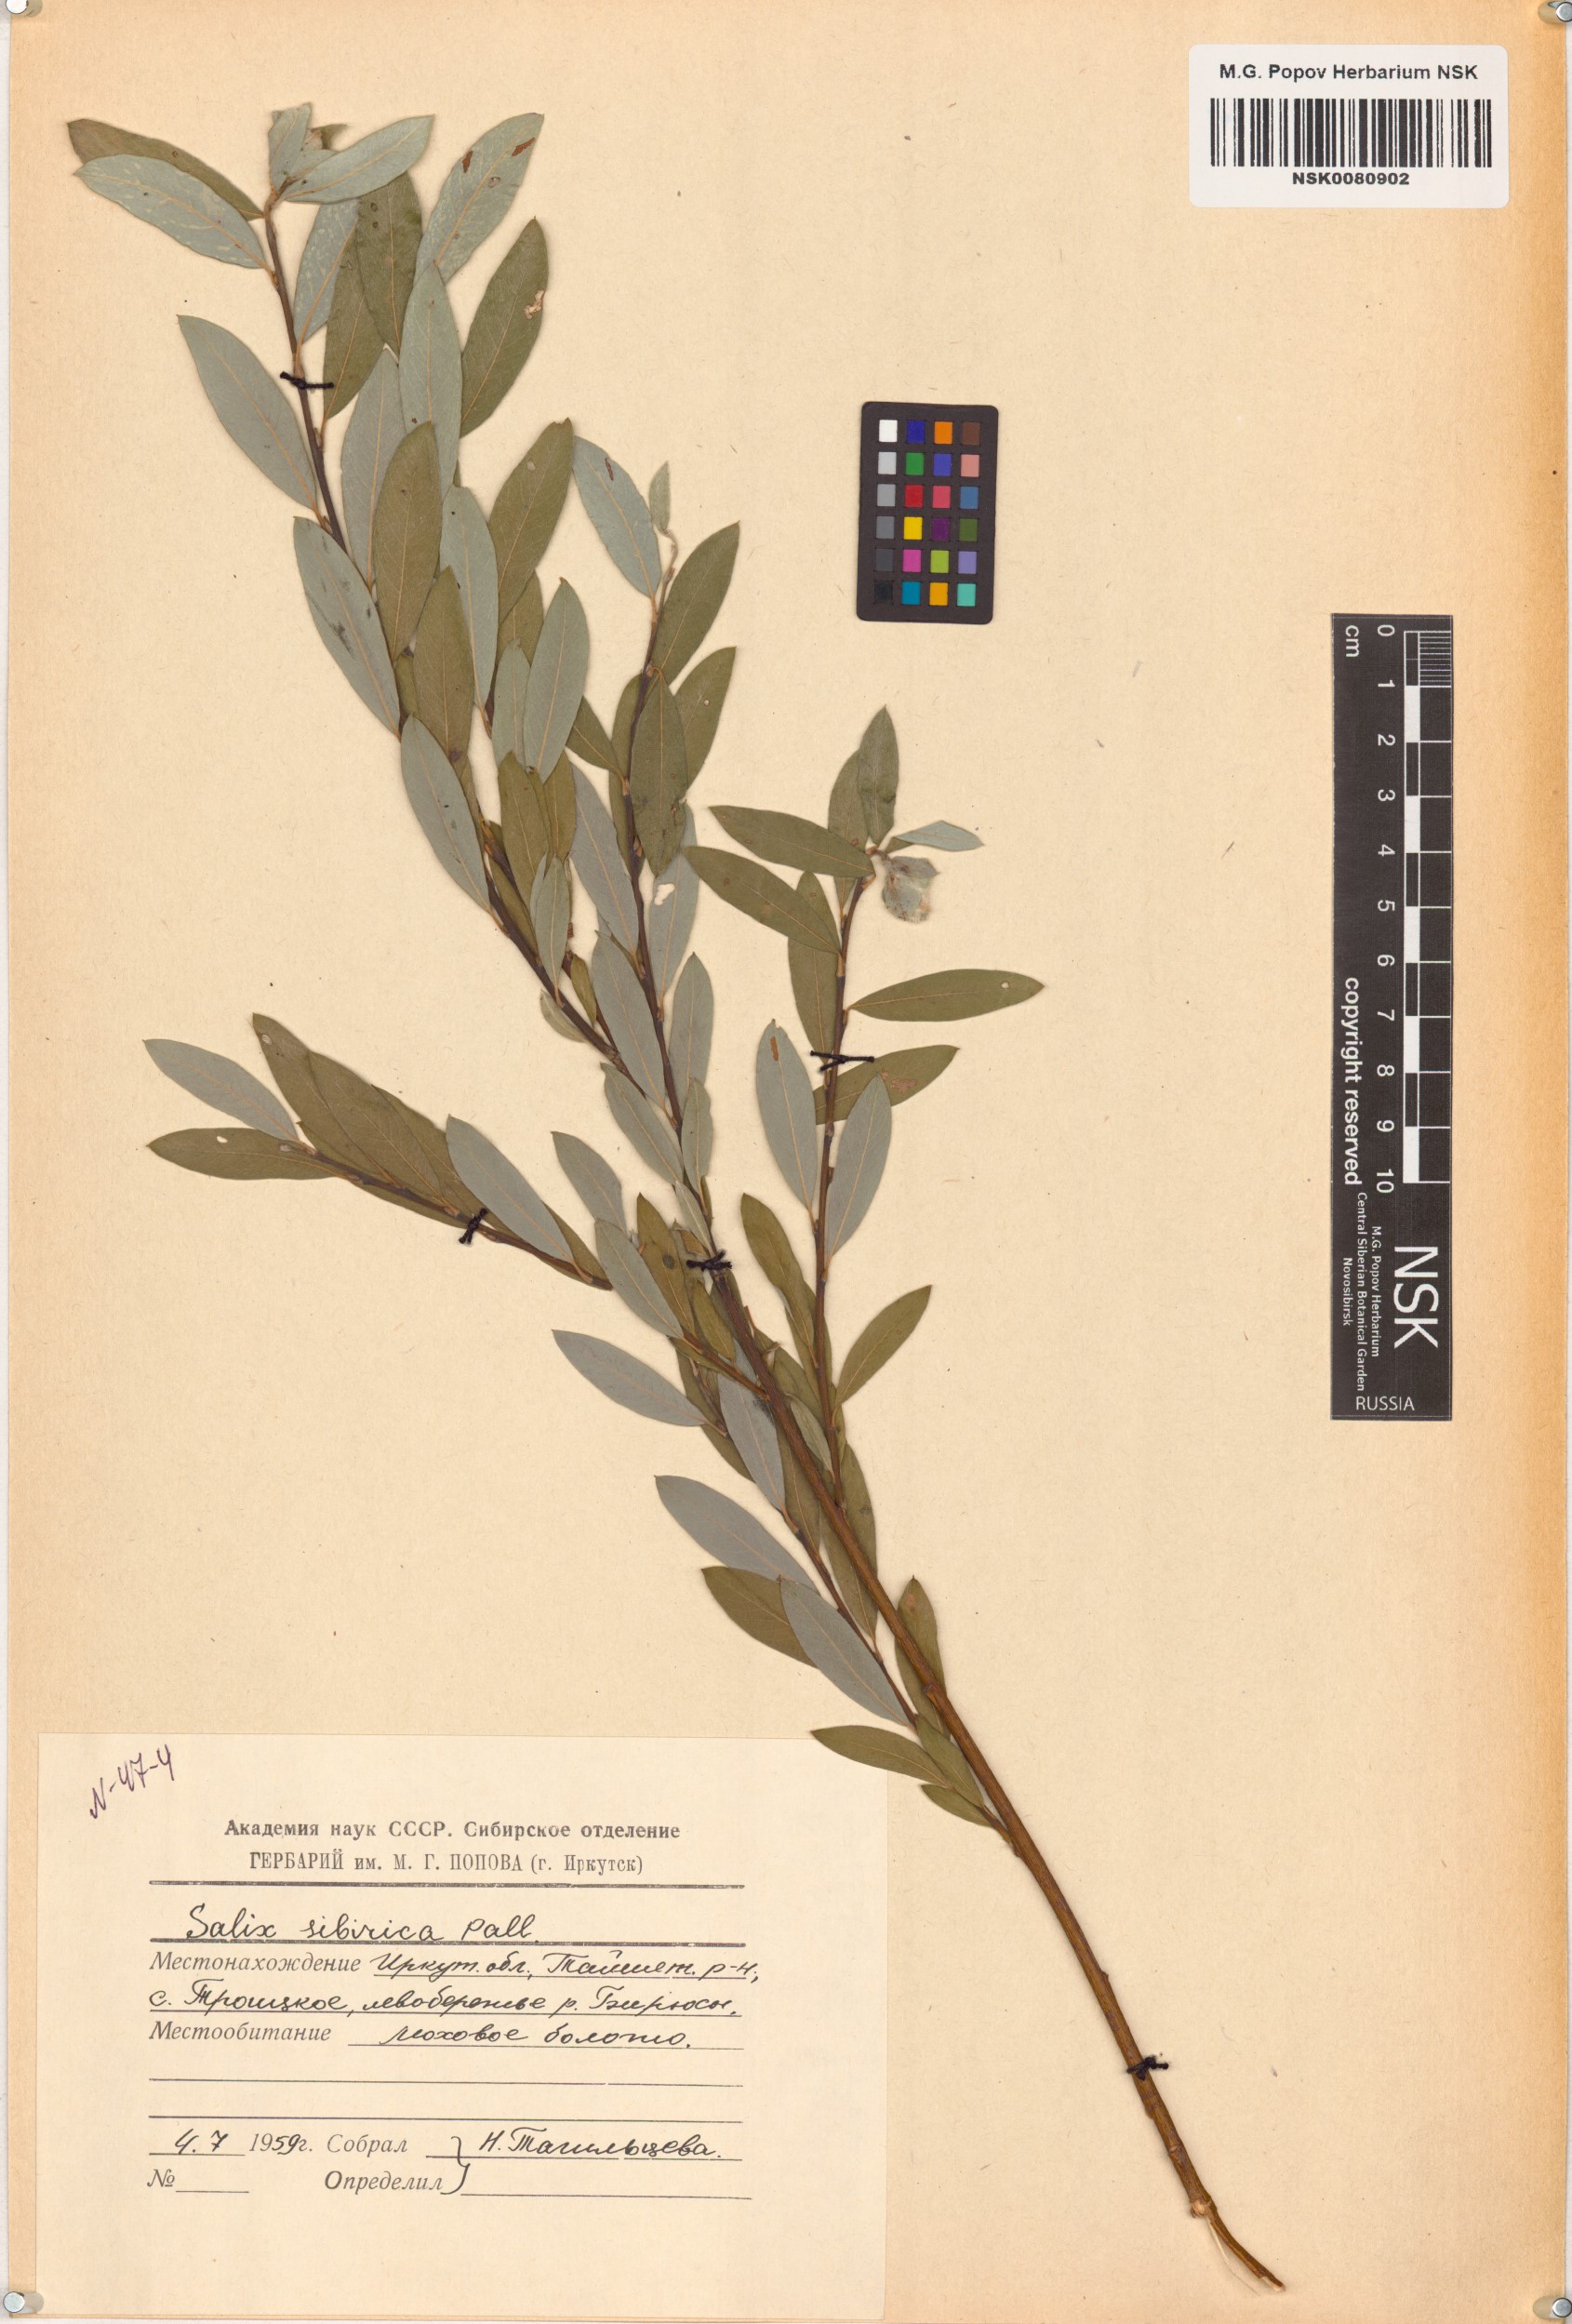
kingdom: Plantae
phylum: Tracheophyta
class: Magnoliopsida
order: Malpighiales
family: Salicaceae
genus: Salix
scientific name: Salix rosmarinifolia
